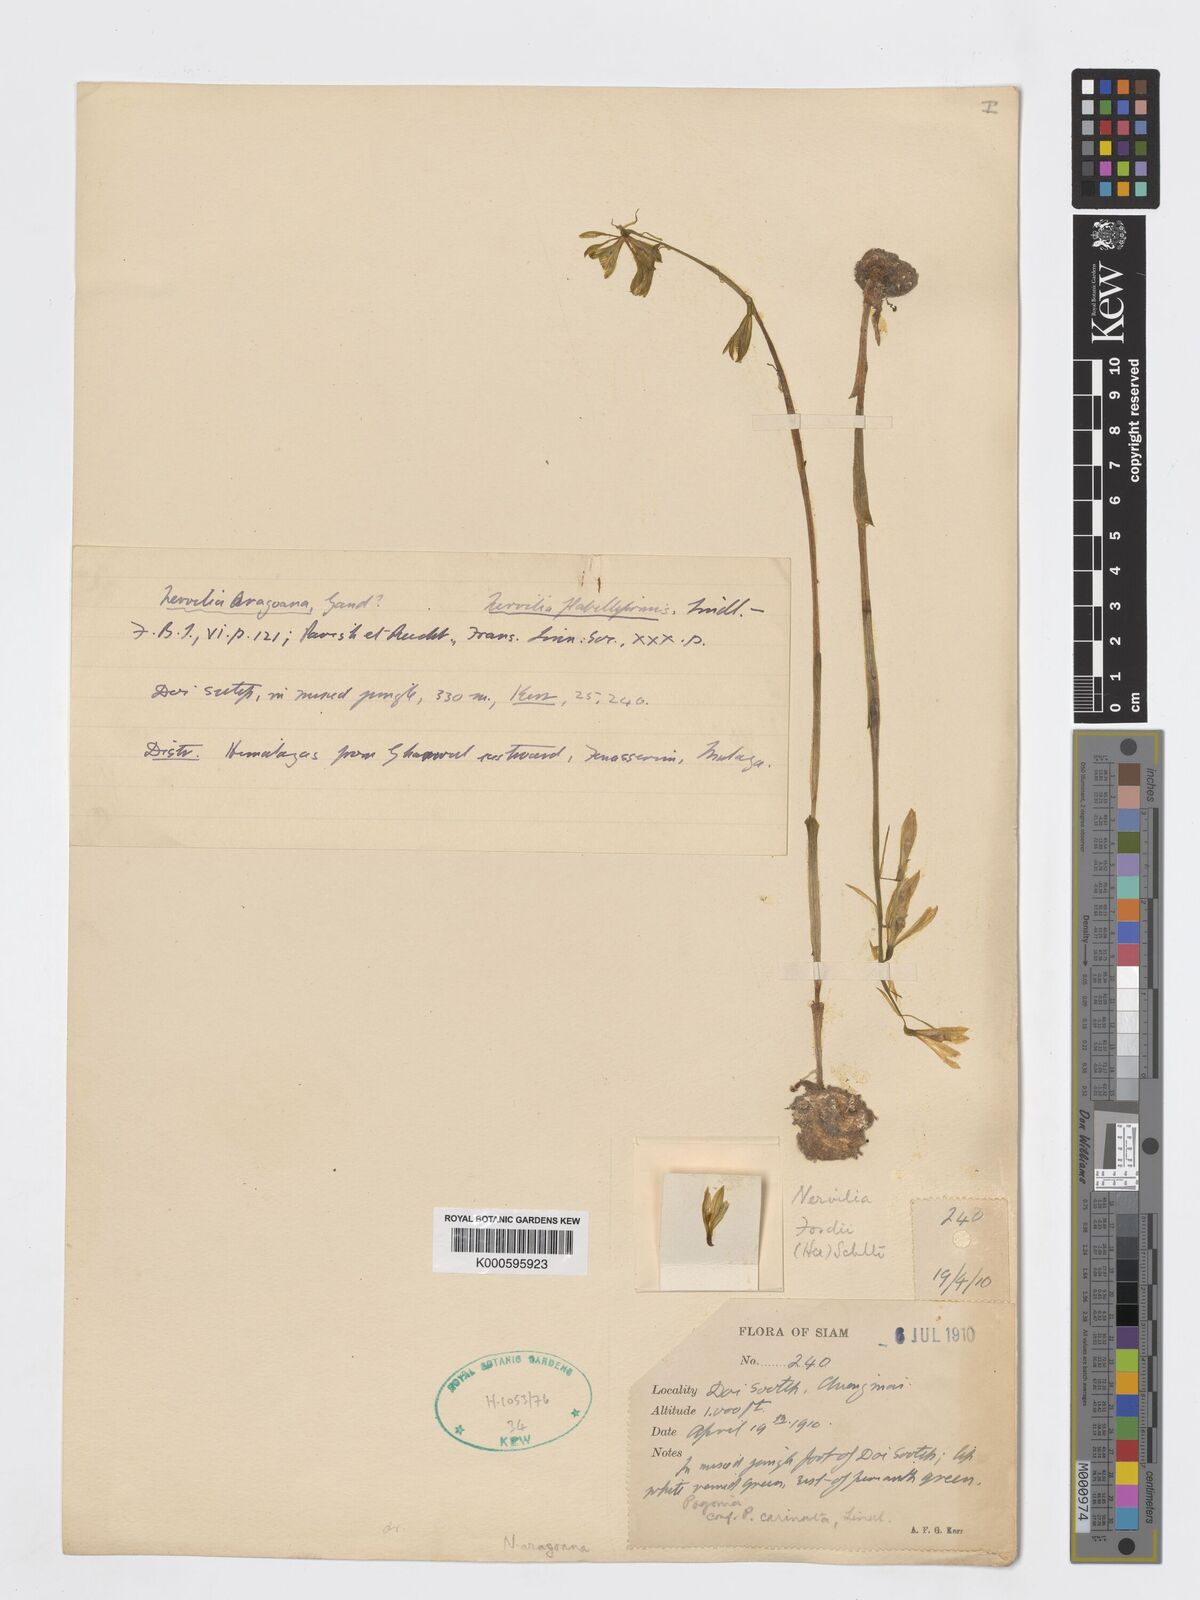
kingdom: Plantae
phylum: Tracheophyta
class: Liliopsida
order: Asparagales
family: Orchidaceae
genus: Nervilia
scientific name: Nervilia concolor
